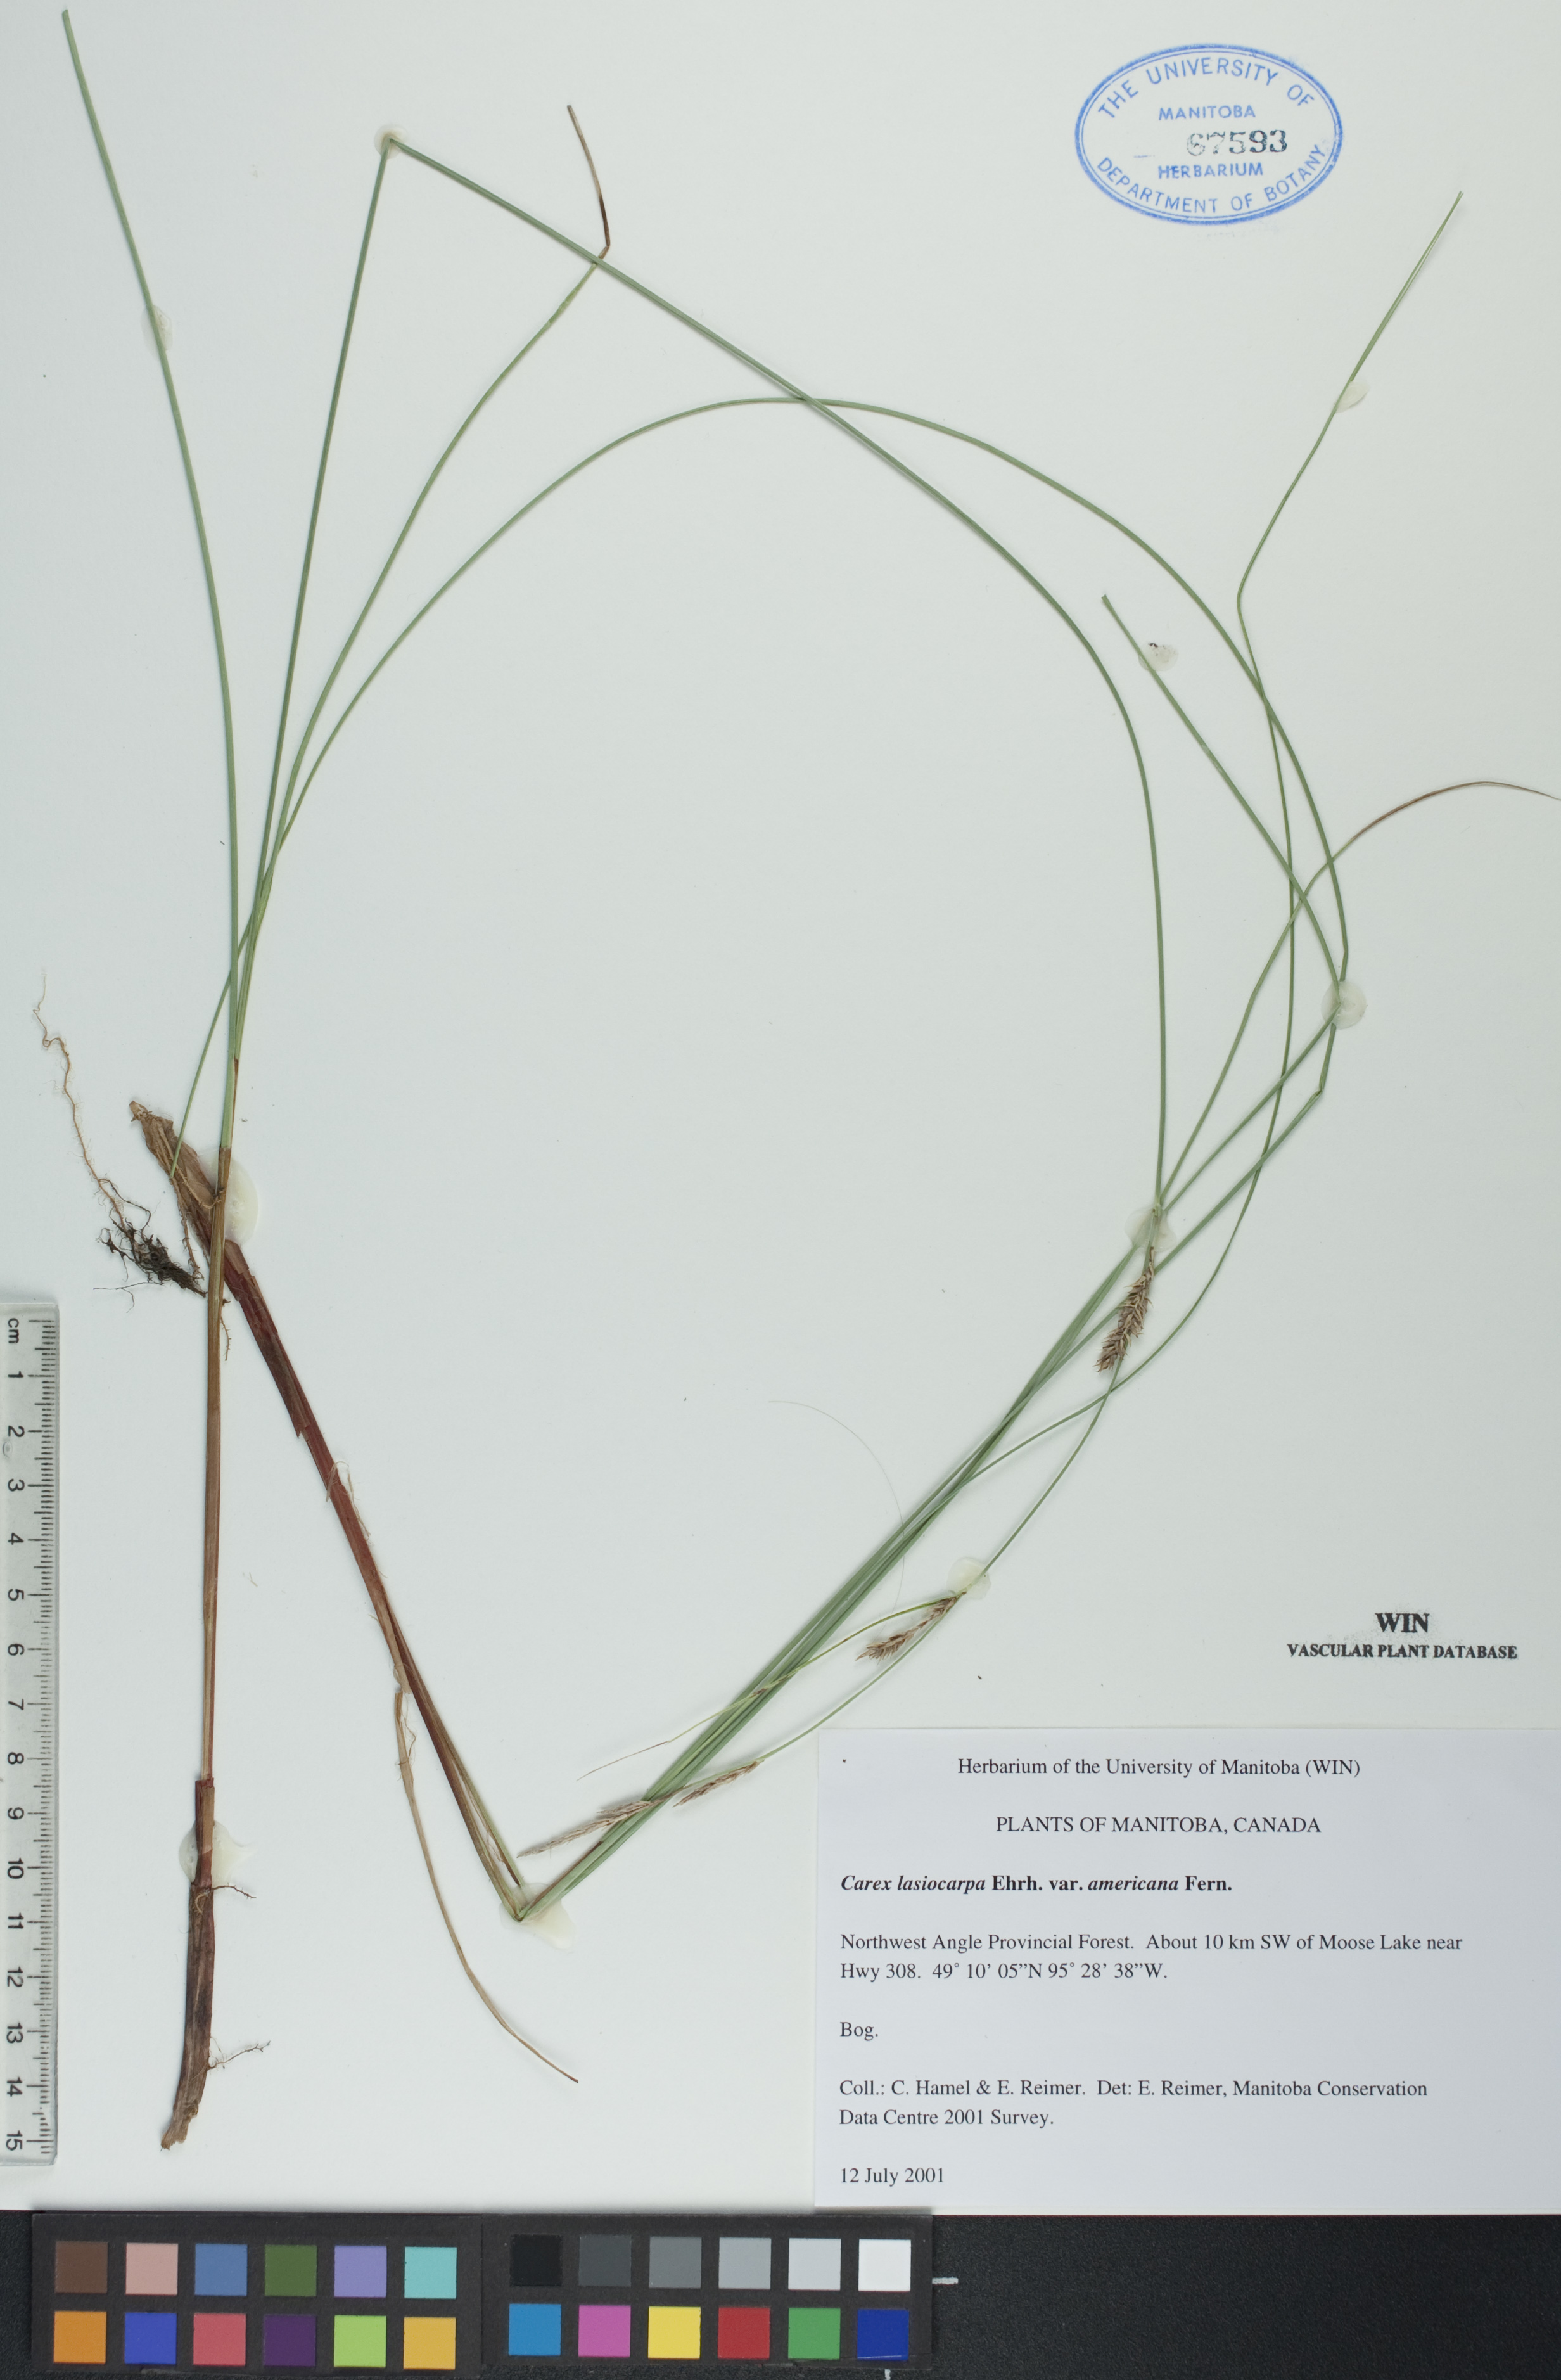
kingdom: Plantae
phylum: Tracheophyta
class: Liliopsida
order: Poales
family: Cyperaceae
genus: Carex
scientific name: Carex lasiocarpa
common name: Slender sedge
